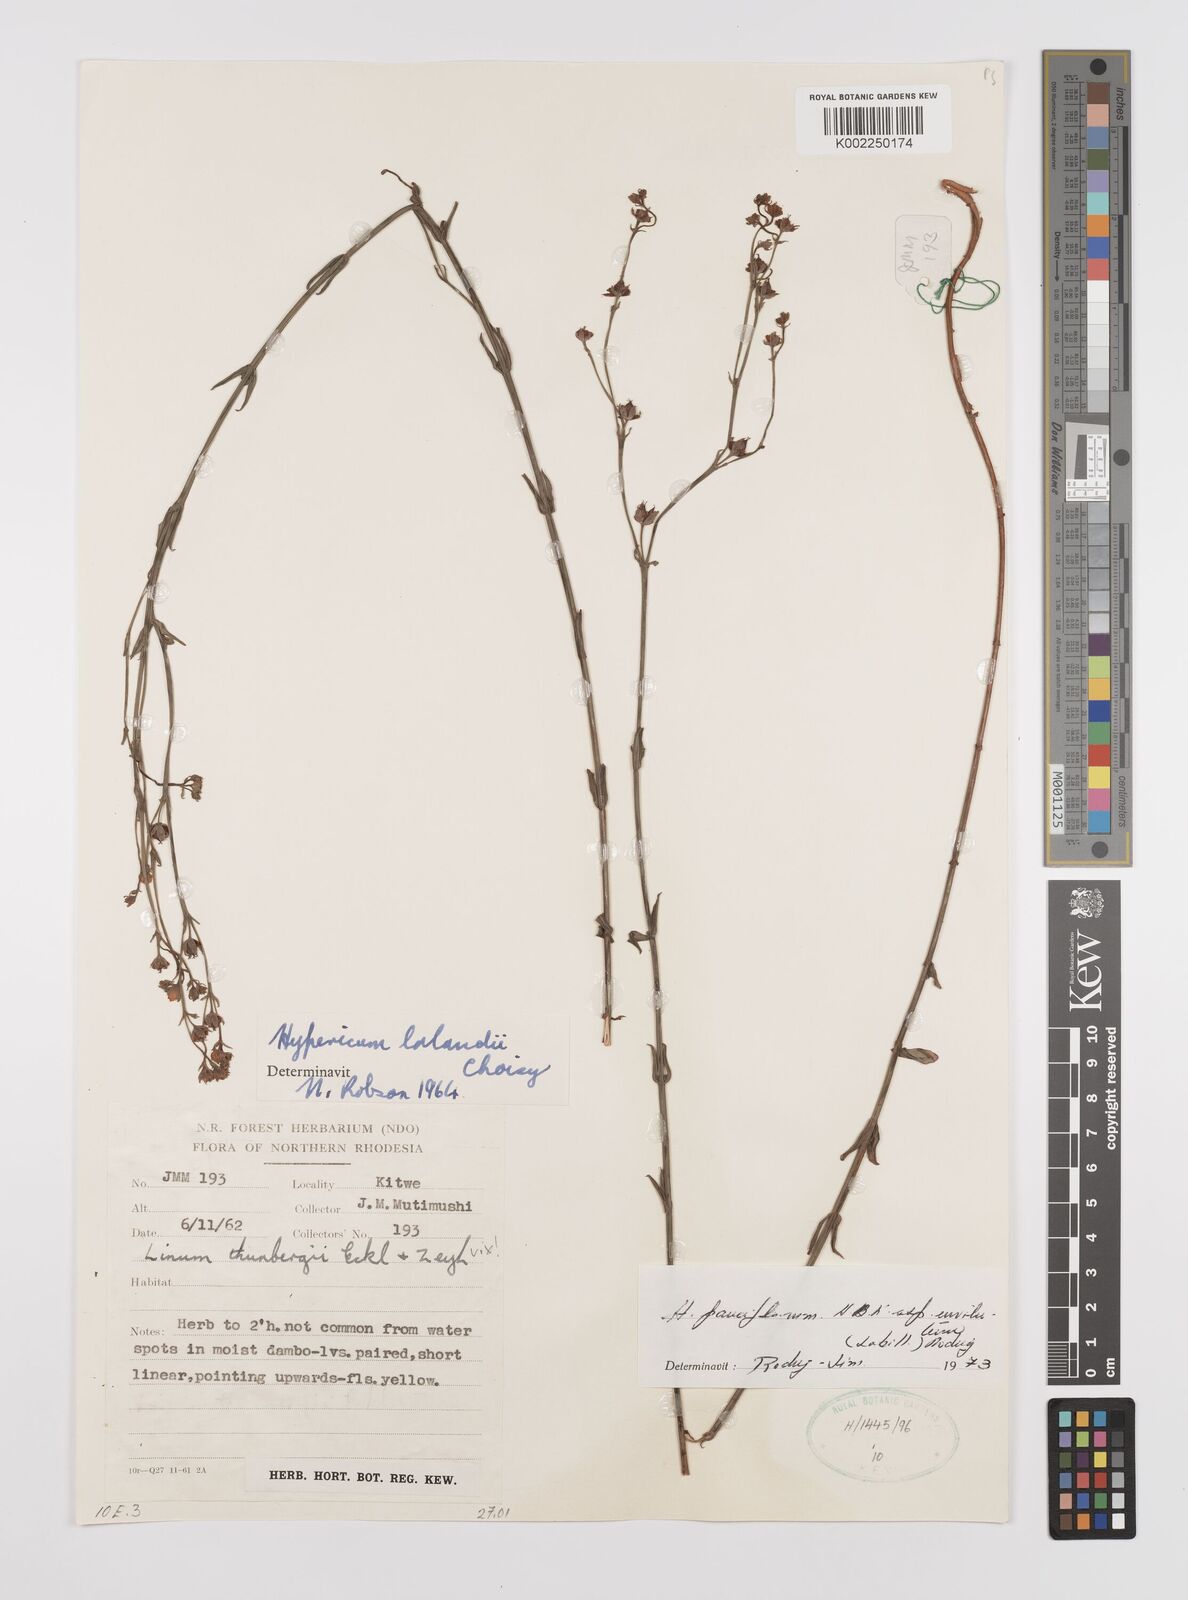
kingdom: Plantae
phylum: Tracheophyta
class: Magnoliopsida
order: Malpighiales
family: Hypericaceae
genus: Hypericum
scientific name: Hypericum lalandii
